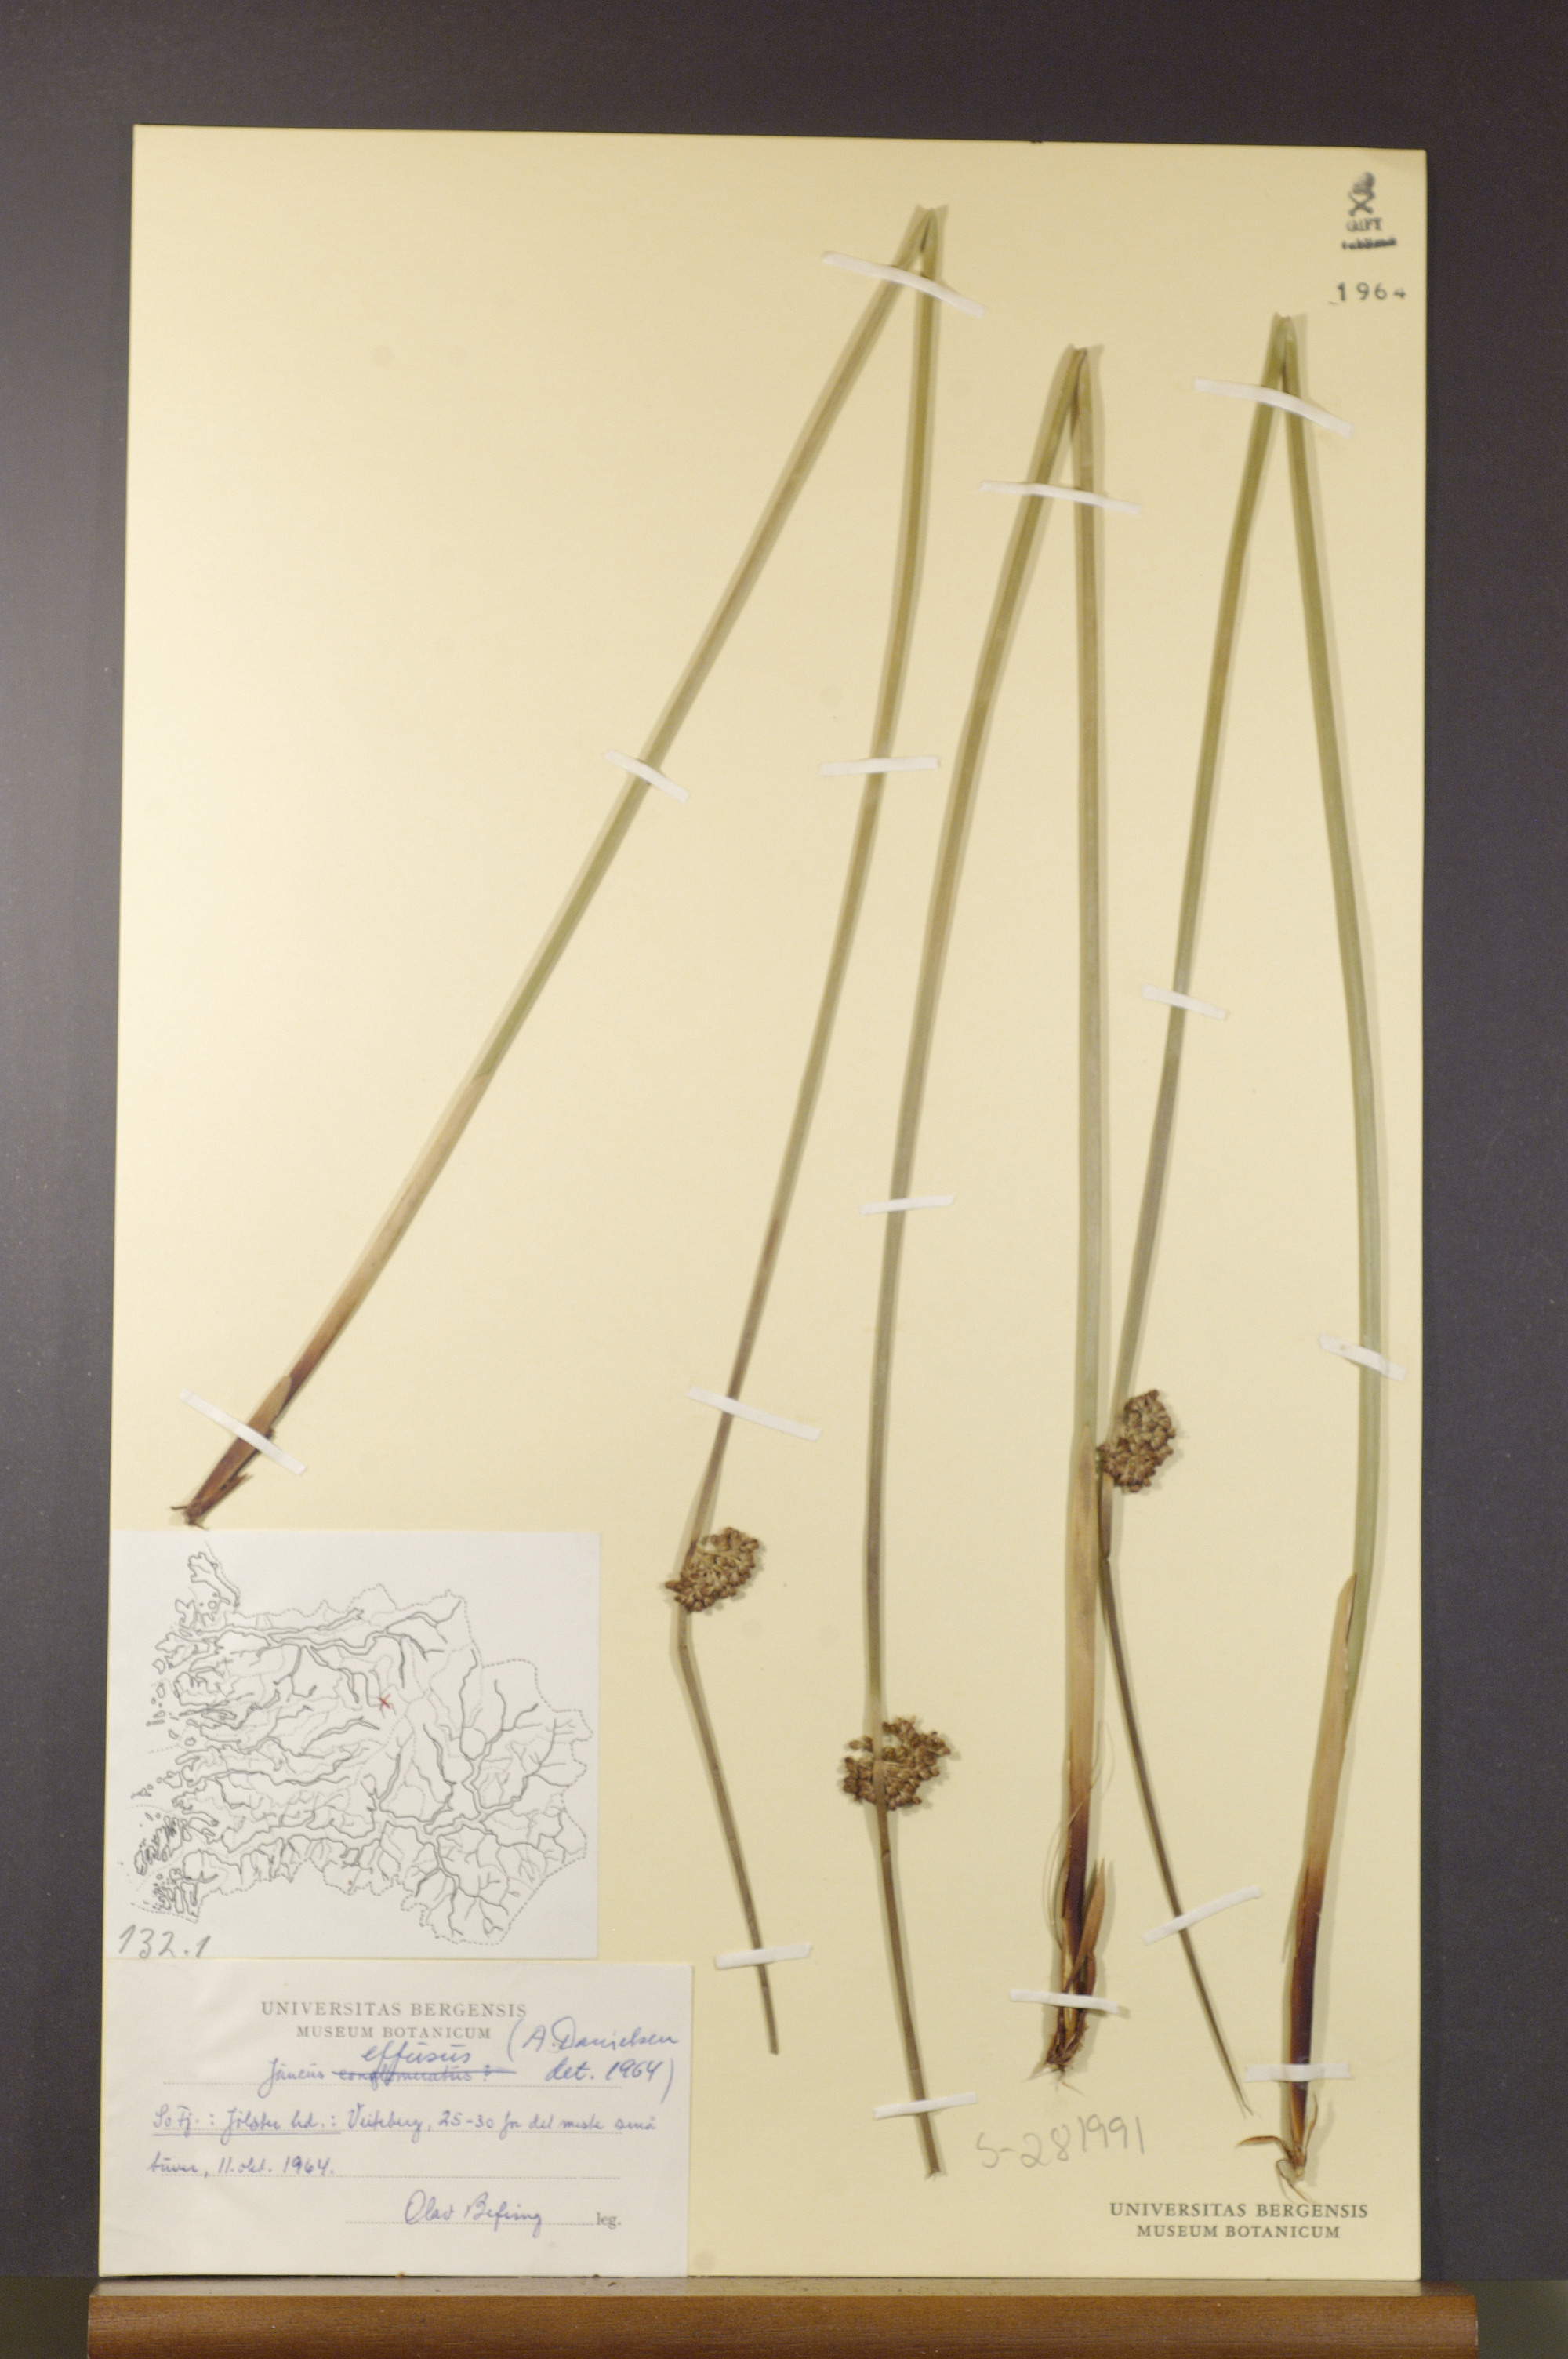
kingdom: Plantae
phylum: Tracheophyta
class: Liliopsida
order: Poales
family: Juncaceae
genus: Juncus
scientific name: Juncus effusus
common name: Soft rush
